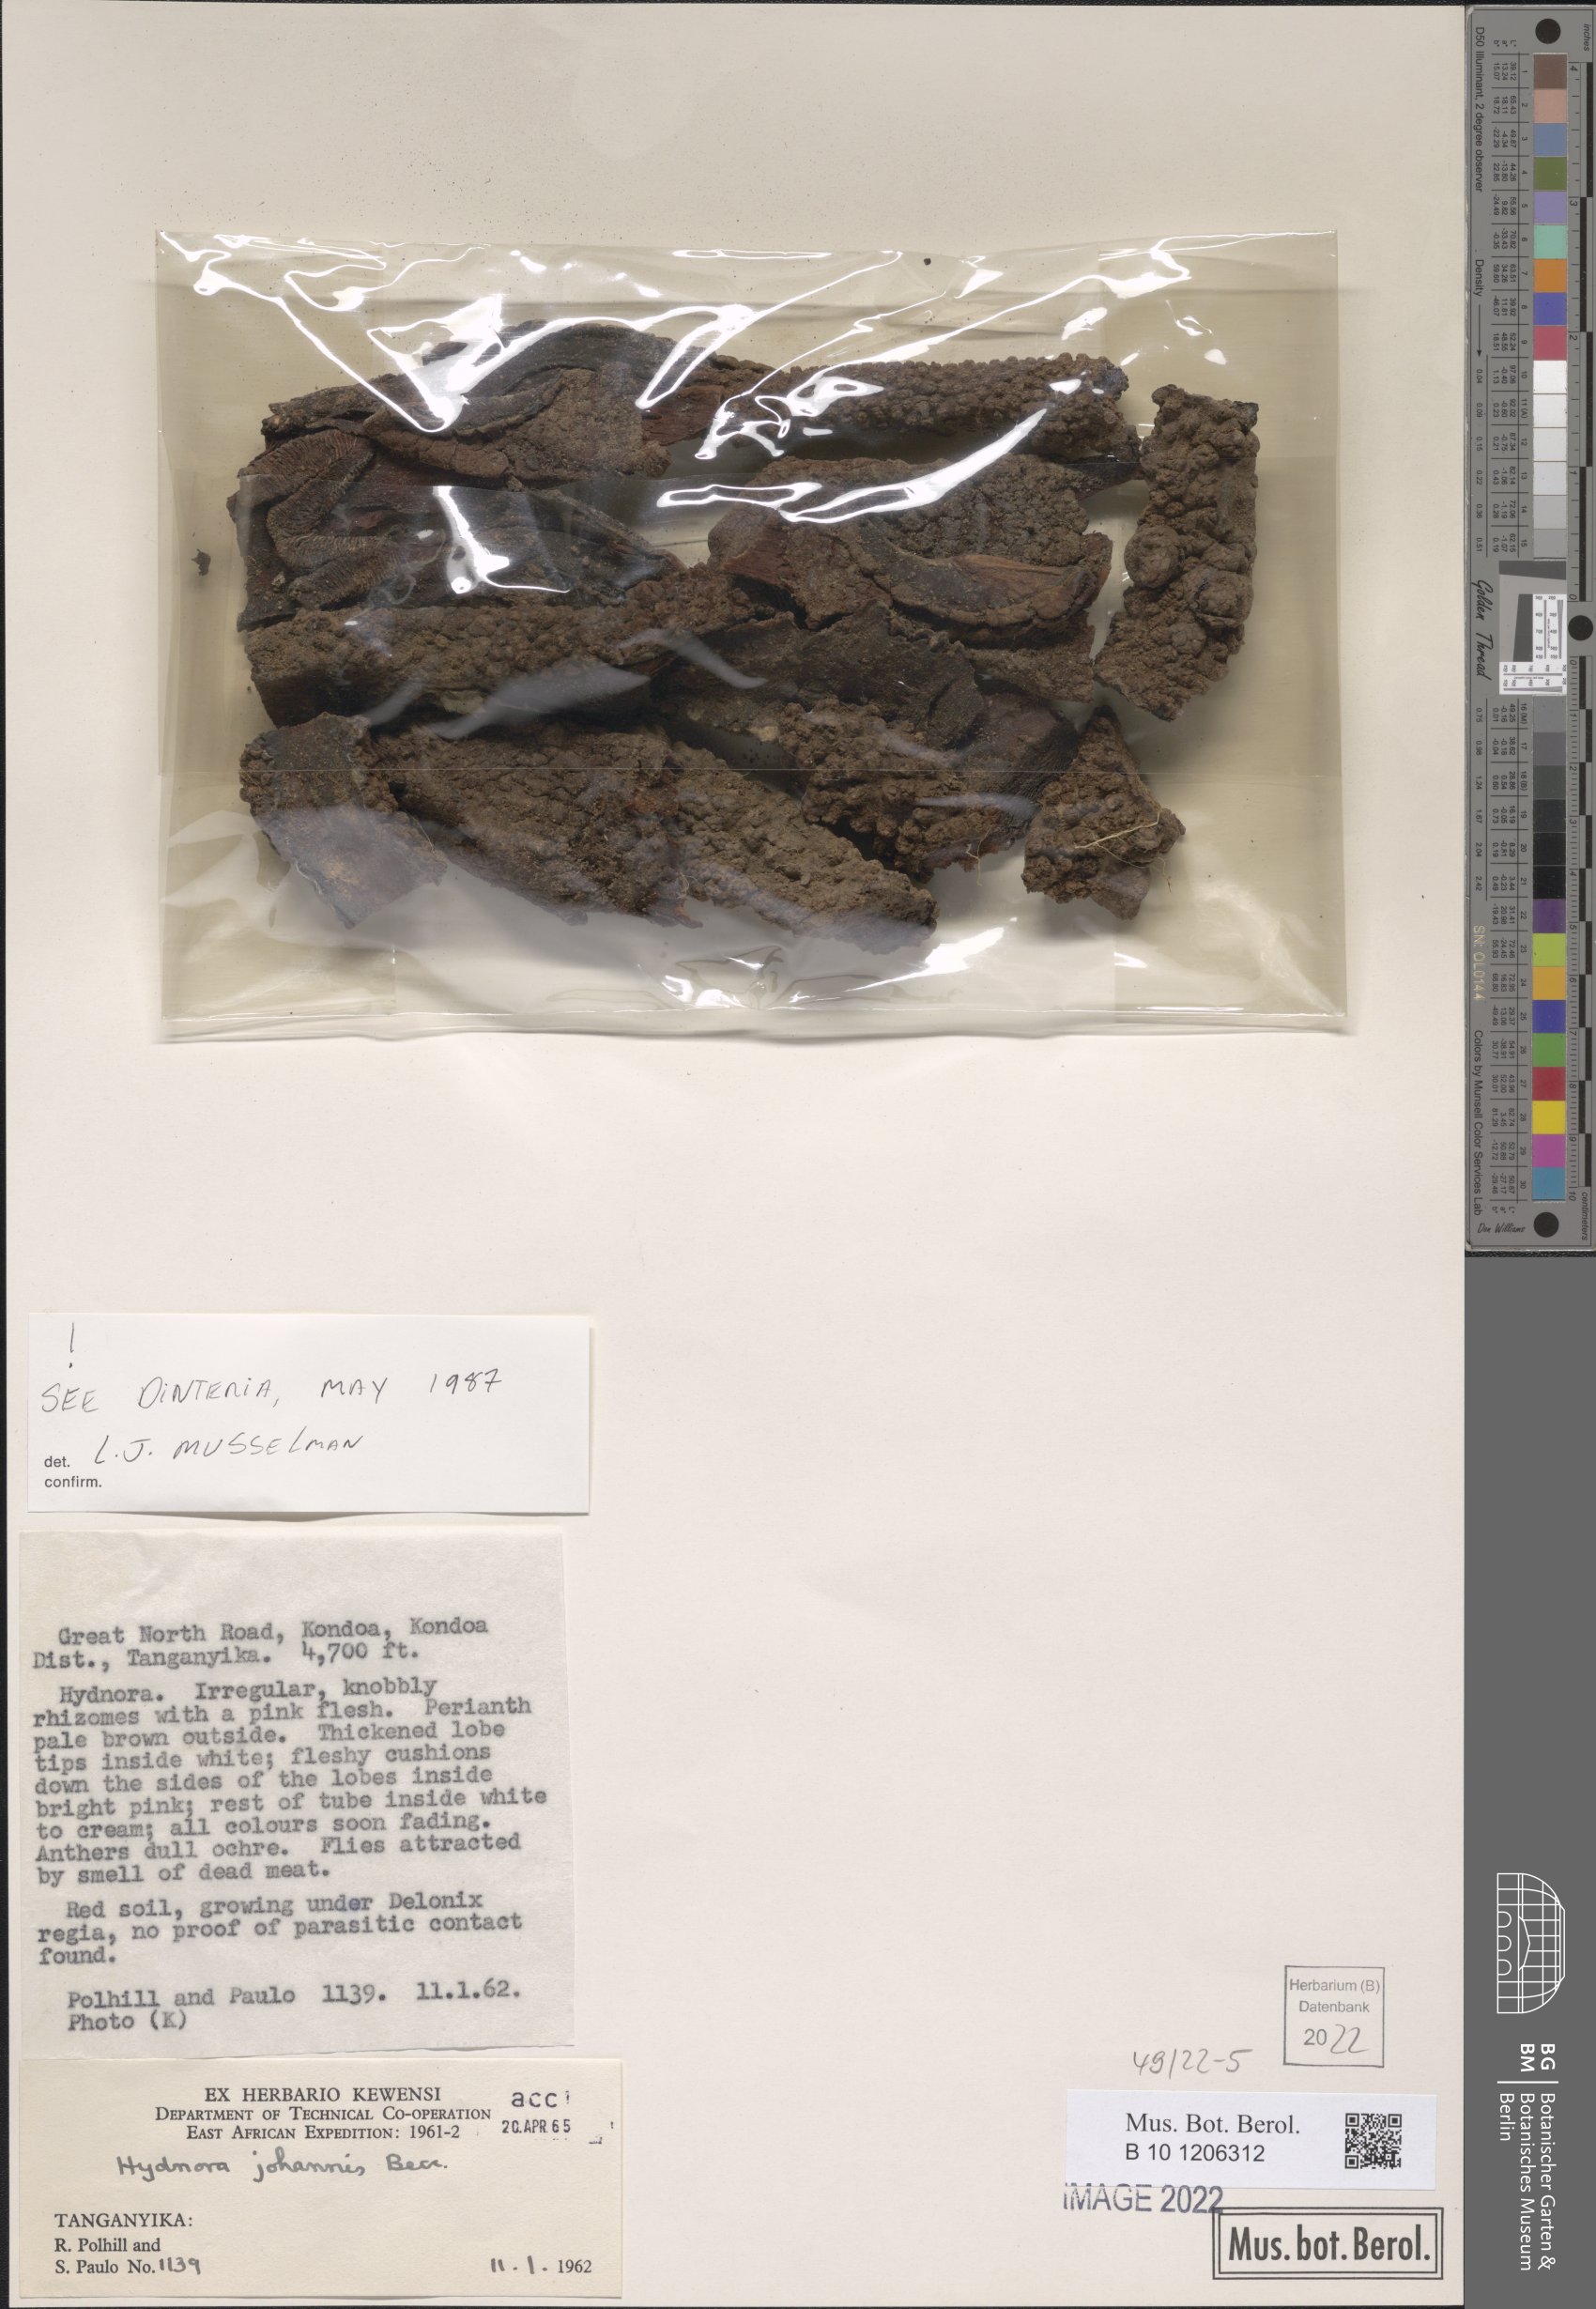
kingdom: Plantae
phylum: Tracheophyta
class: Magnoliopsida
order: Piperales
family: Hydnoraceae
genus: Hydnora
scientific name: Hydnora abyssinica
